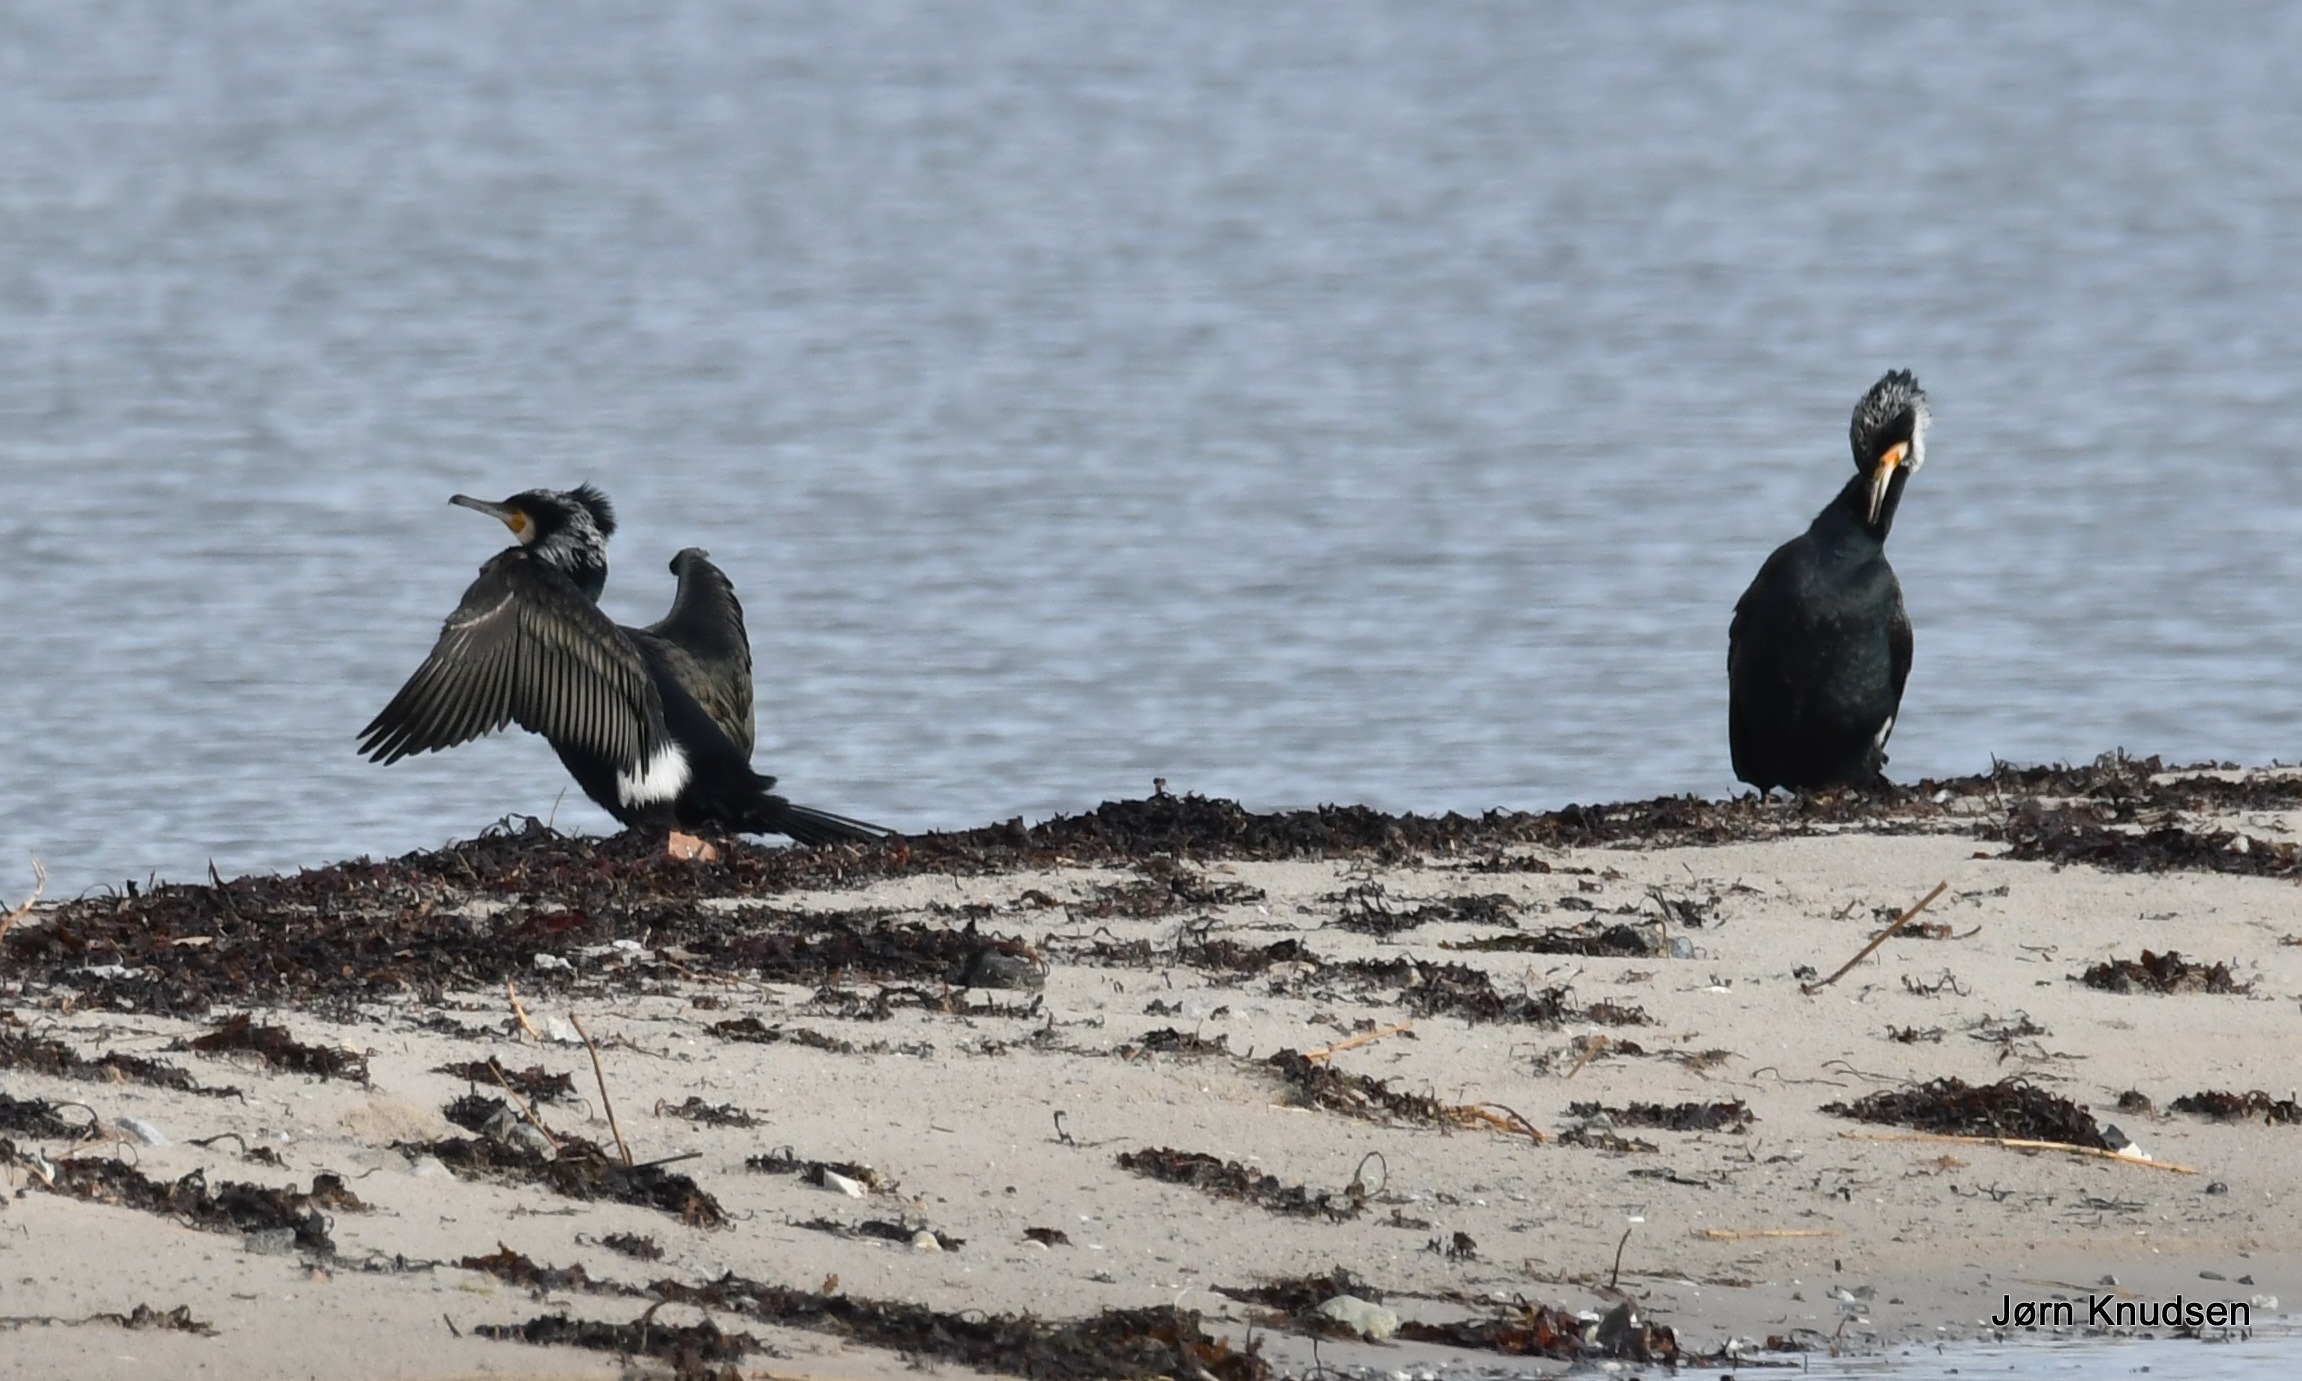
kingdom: Animalia
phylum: Chordata
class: Aves
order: Suliformes
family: Phalacrocoracidae
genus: Phalacrocorax
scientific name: Phalacrocorax carbo
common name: Mellemskarv
